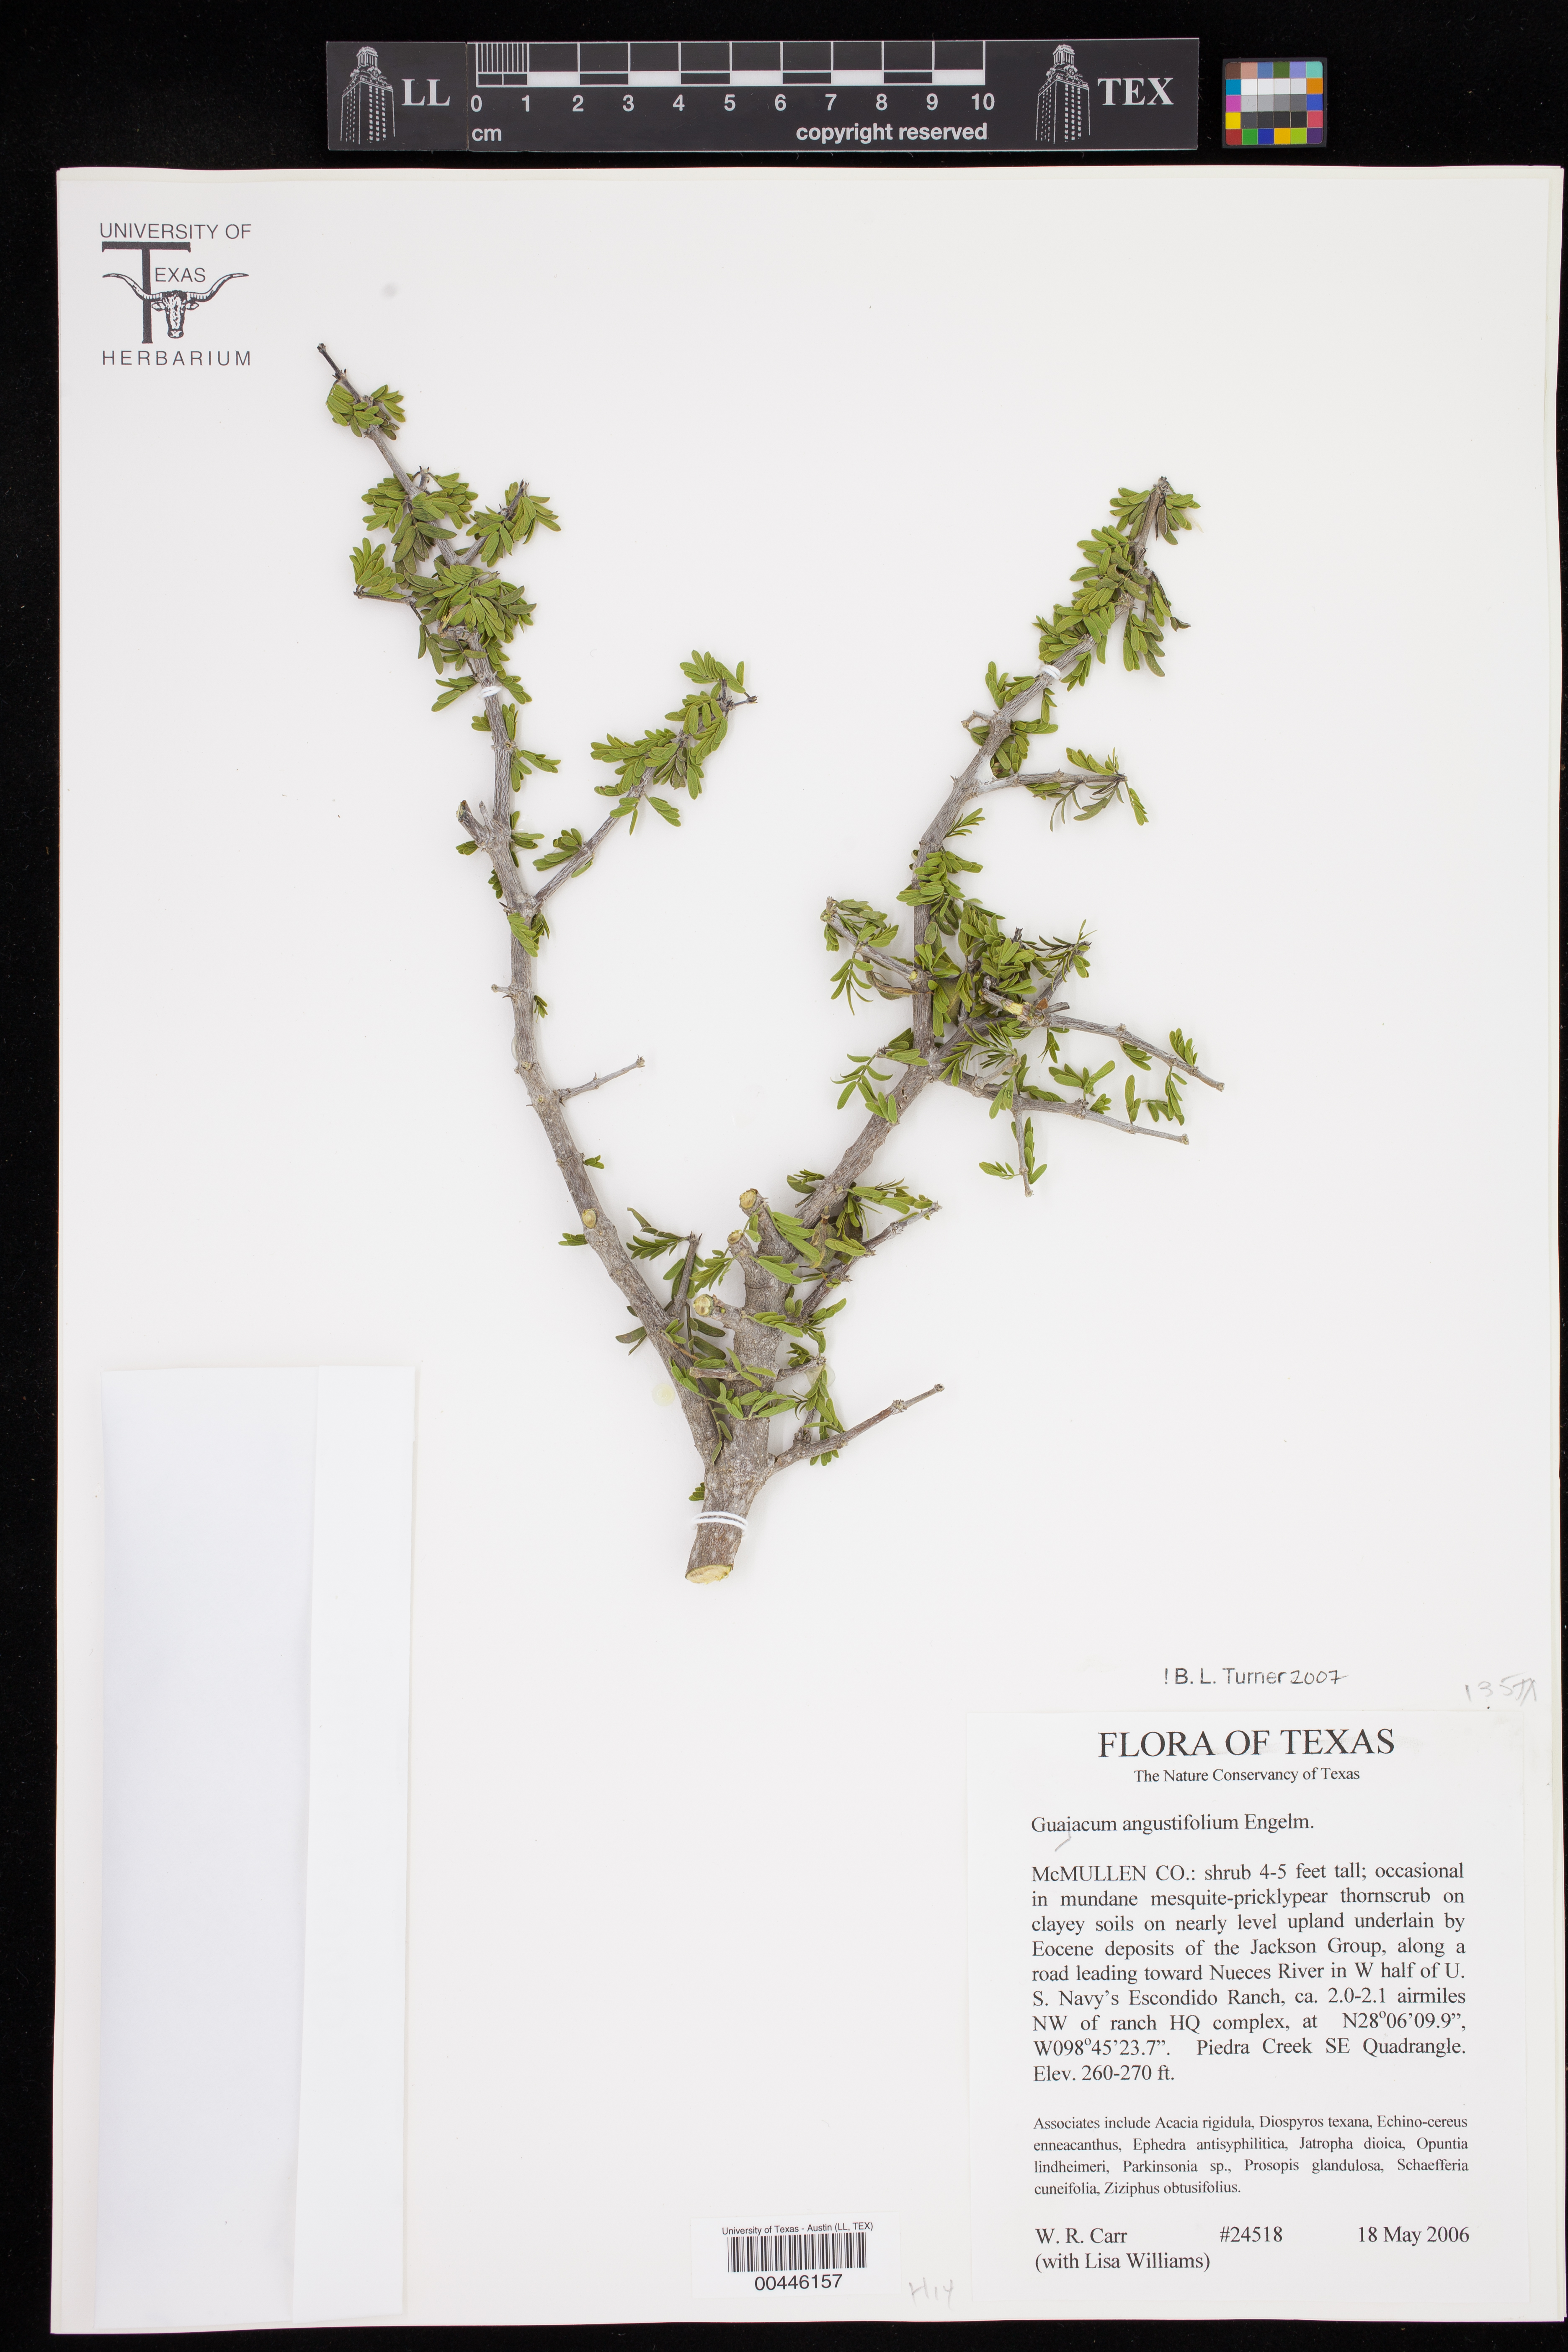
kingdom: Plantae
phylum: Tracheophyta
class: Magnoliopsida
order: Zygophyllales
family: Zygophyllaceae
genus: Porlieria
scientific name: Porlieria angustifolia
